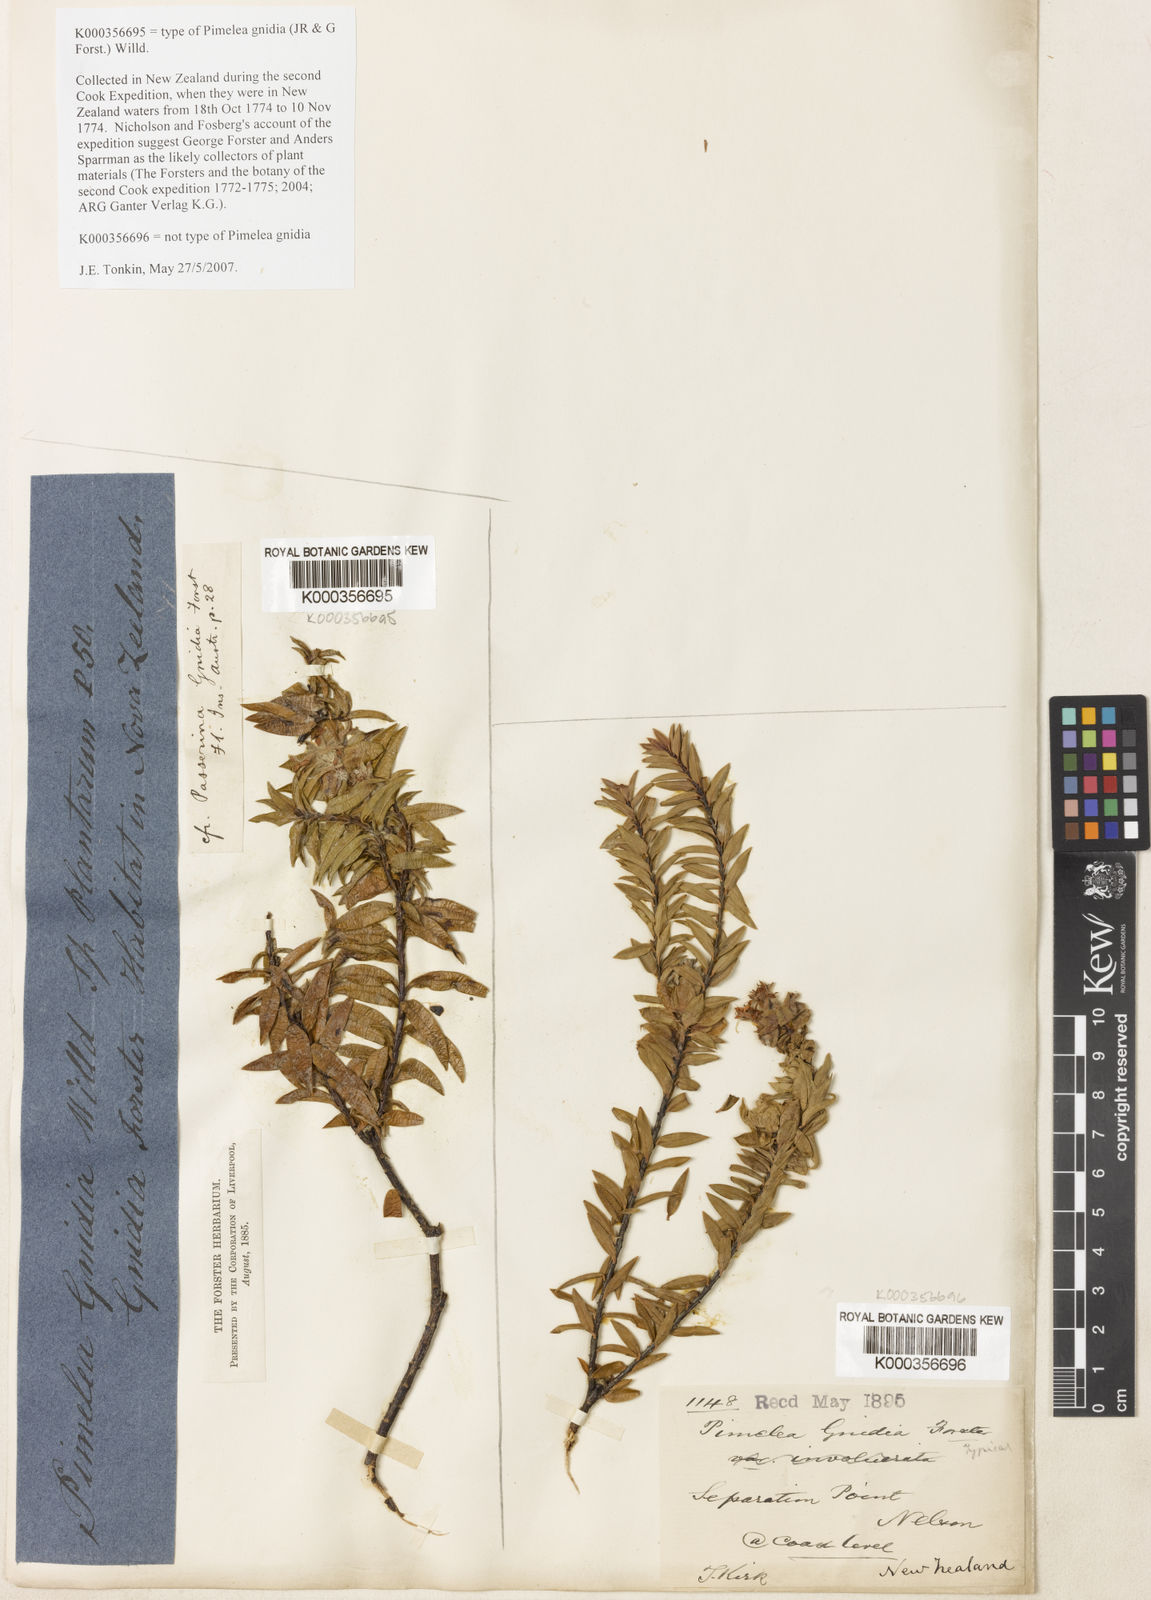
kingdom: Plantae
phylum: Tracheophyta
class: Magnoliopsida
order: Malvales
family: Thymelaeaceae
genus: Pimelea
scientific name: Pimelea
